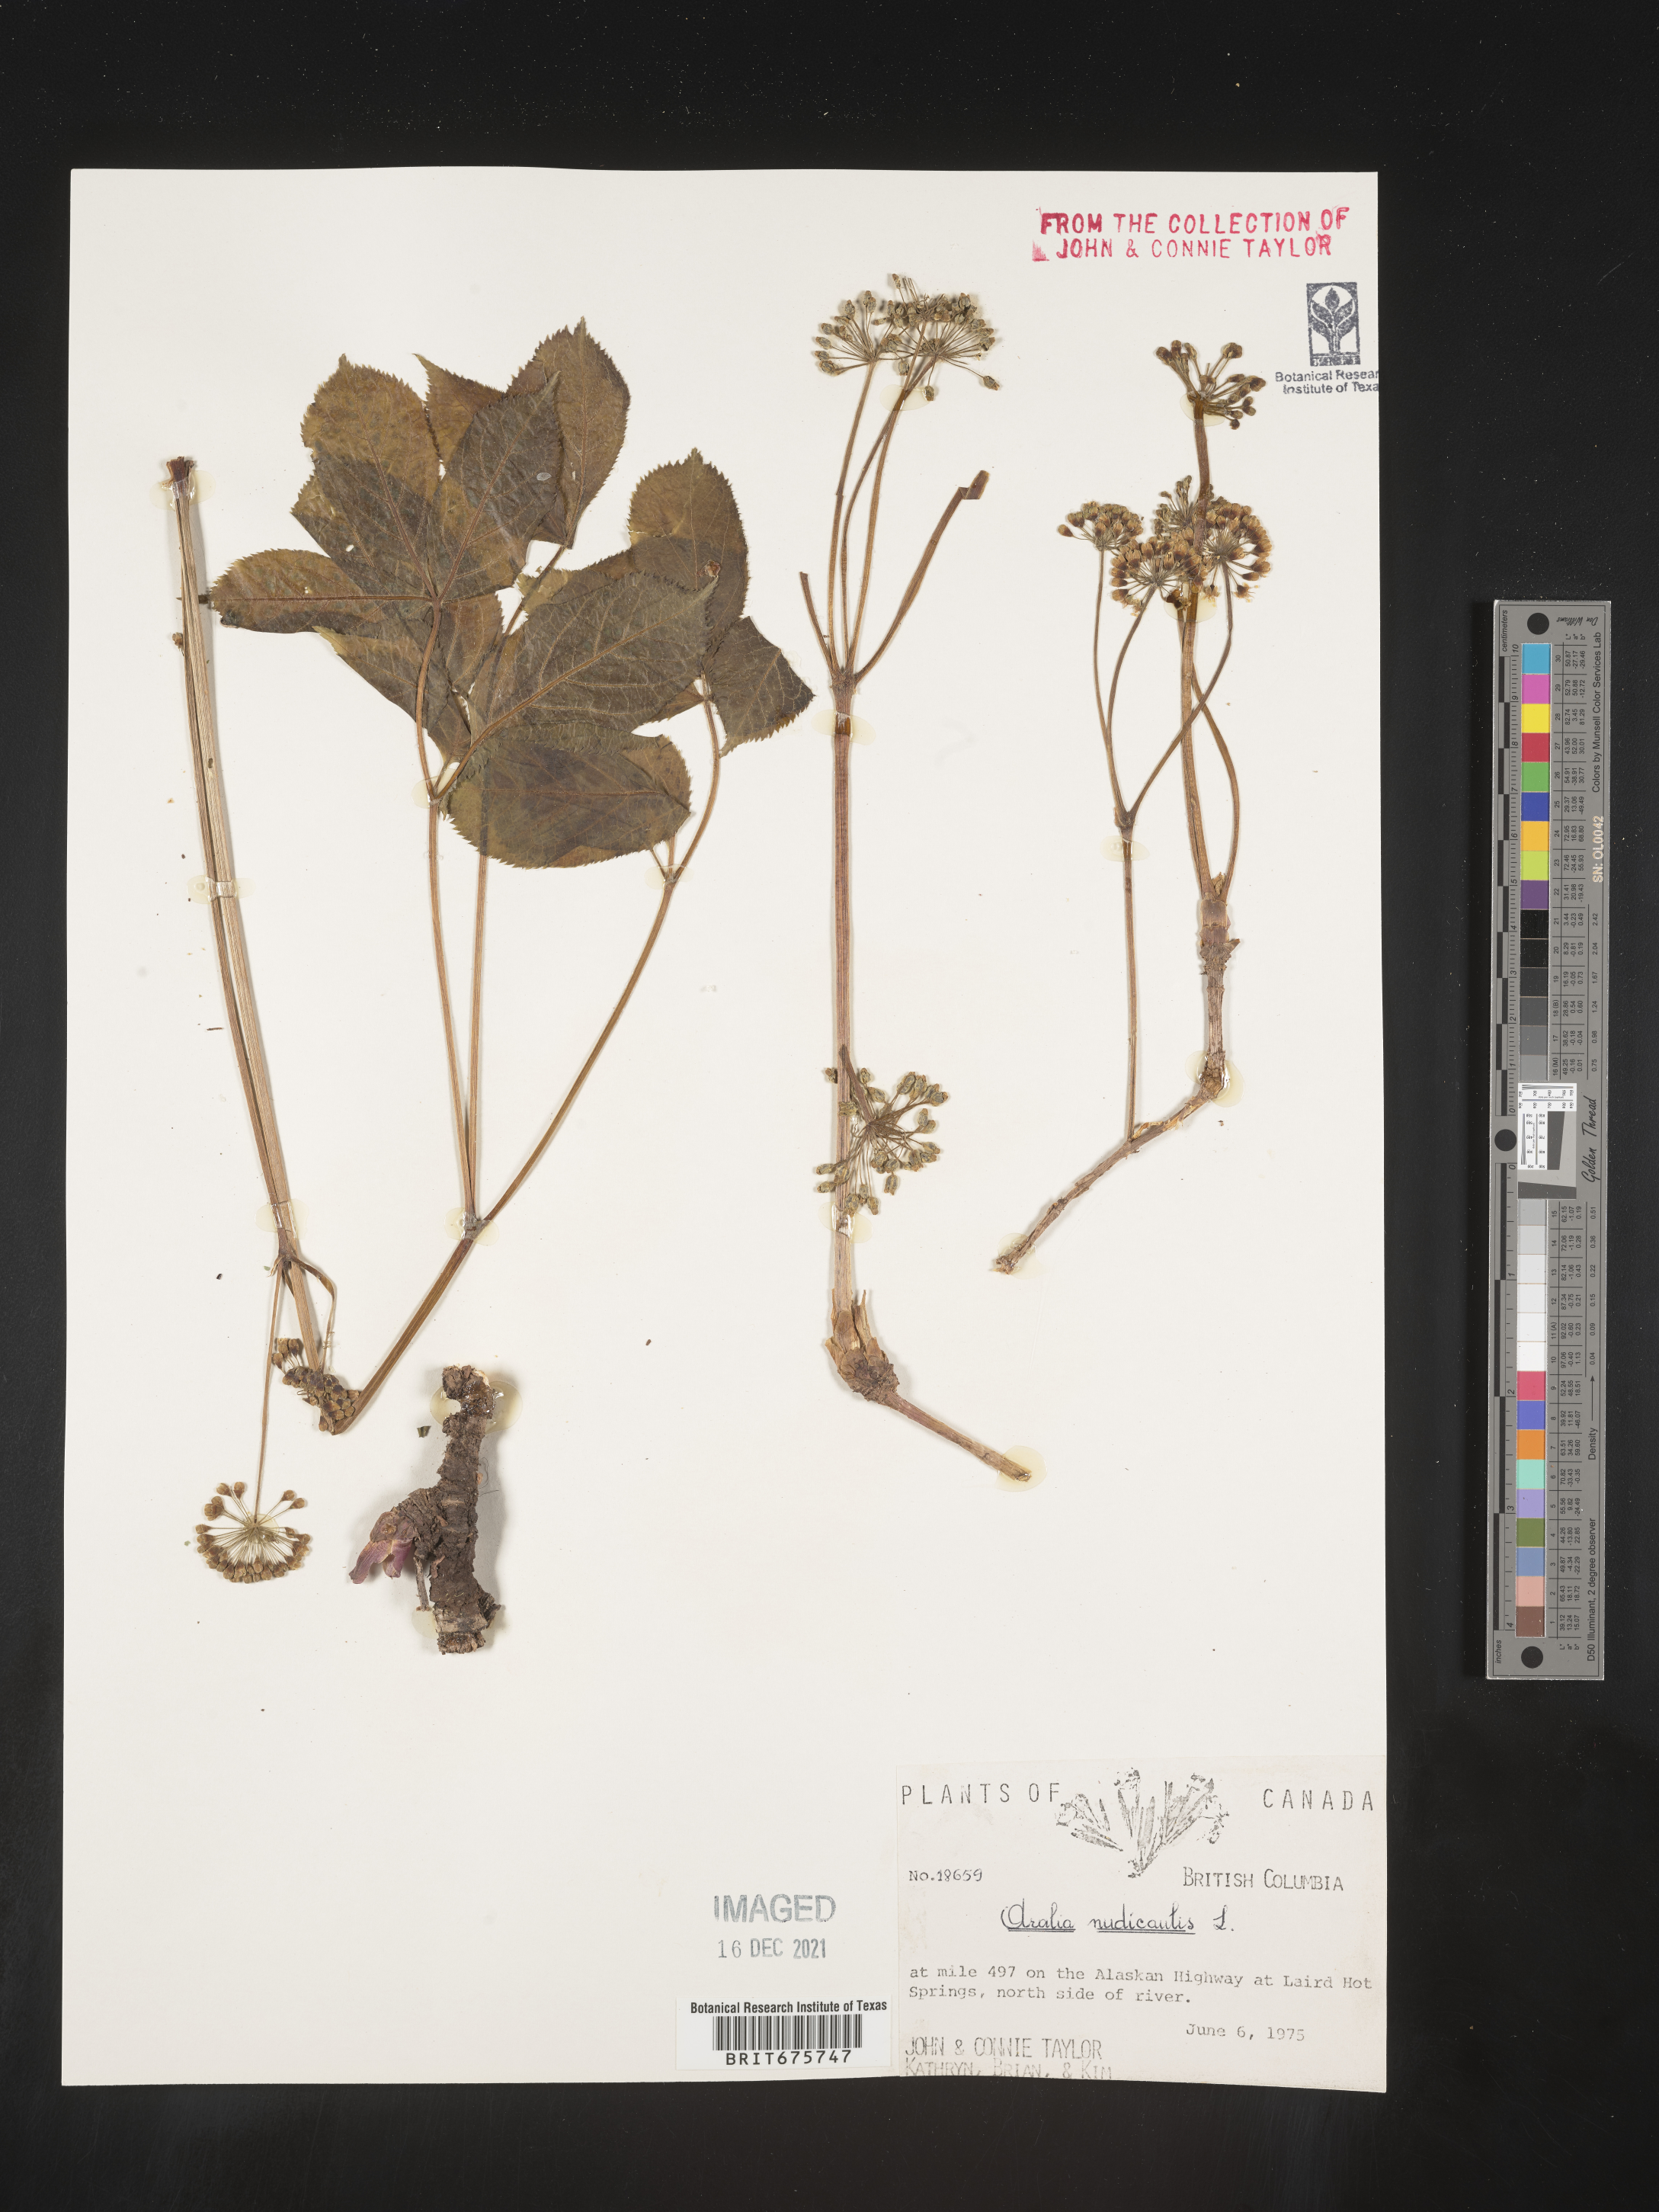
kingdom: Plantae
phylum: Tracheophyta
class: Magnoliopsida
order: Apiales
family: Araliaceae
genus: Aralia
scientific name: Aralia nudicaulis
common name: Wild sarsaparilla
